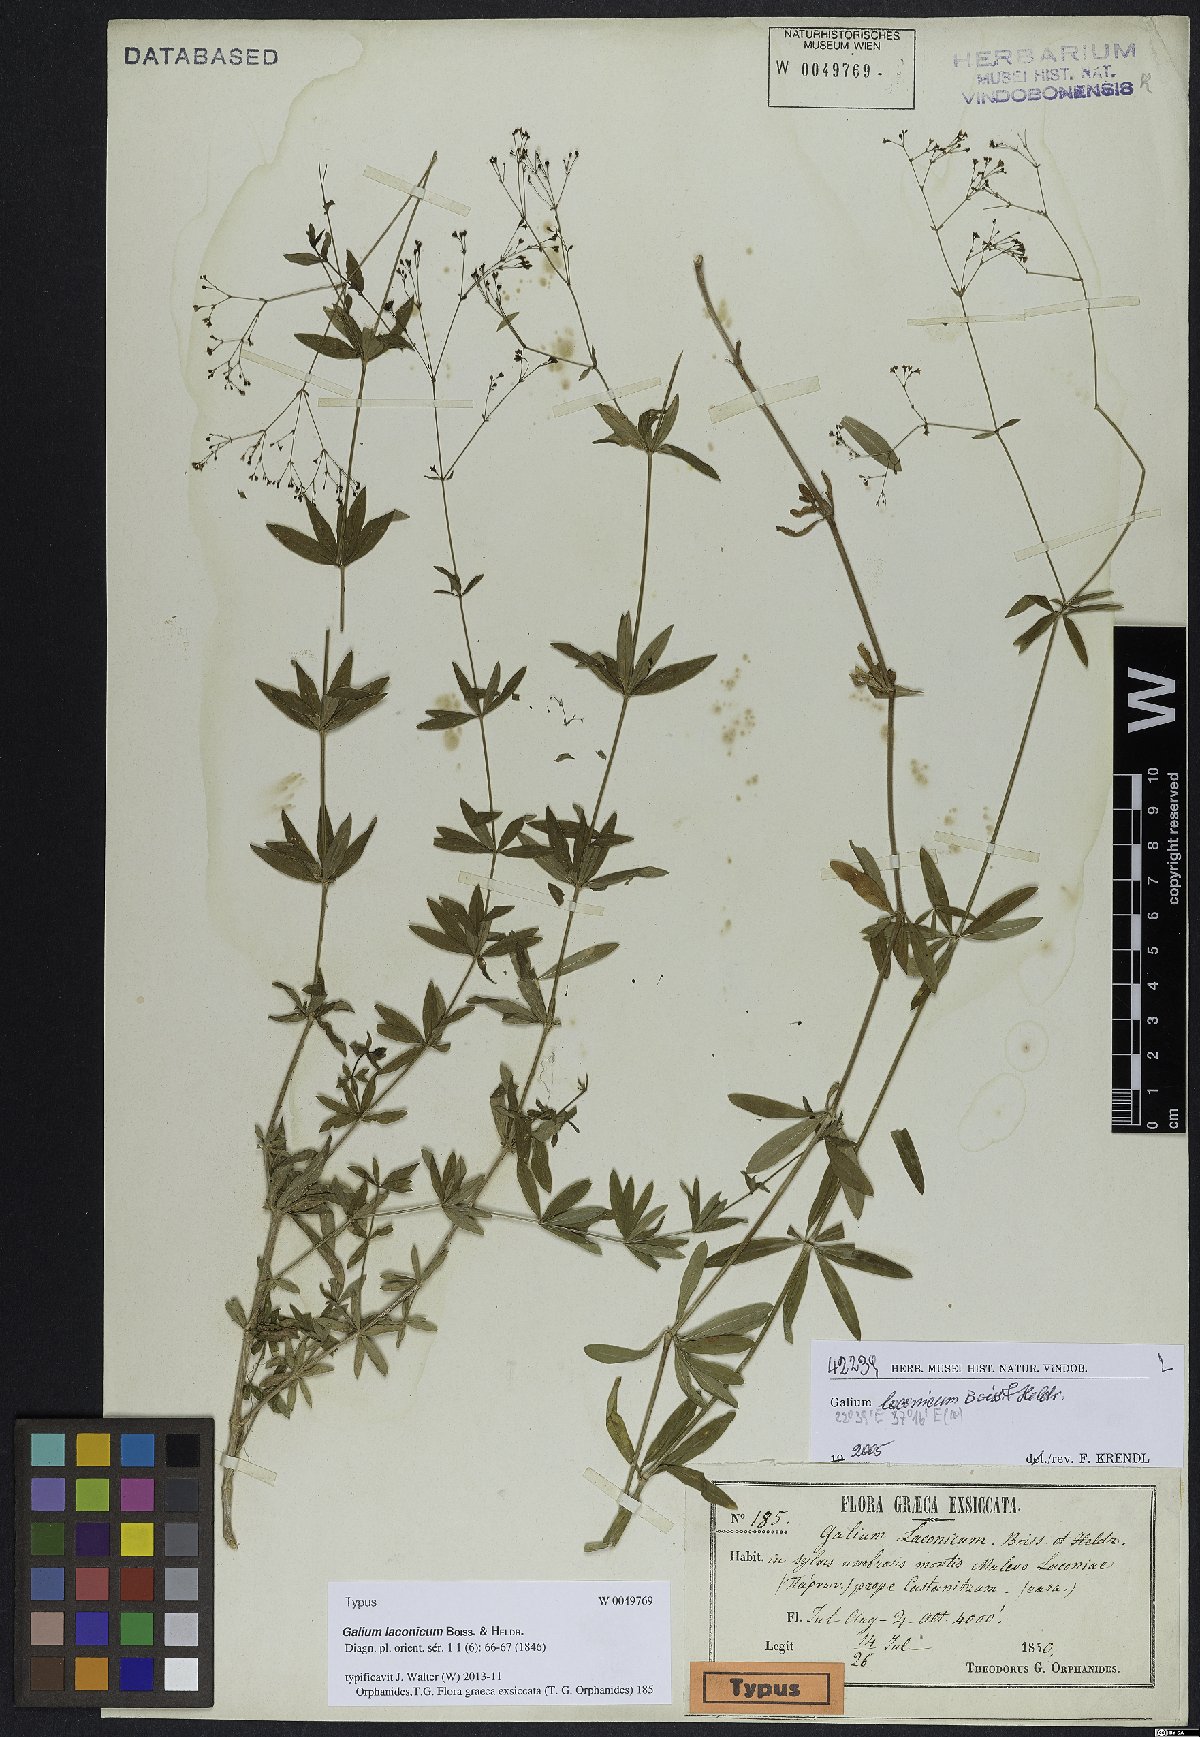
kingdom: Plantae
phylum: Tracheophyta
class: Magnoliopsida
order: Gentianales
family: Rubiaceae
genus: Galium
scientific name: Galium laconicum
